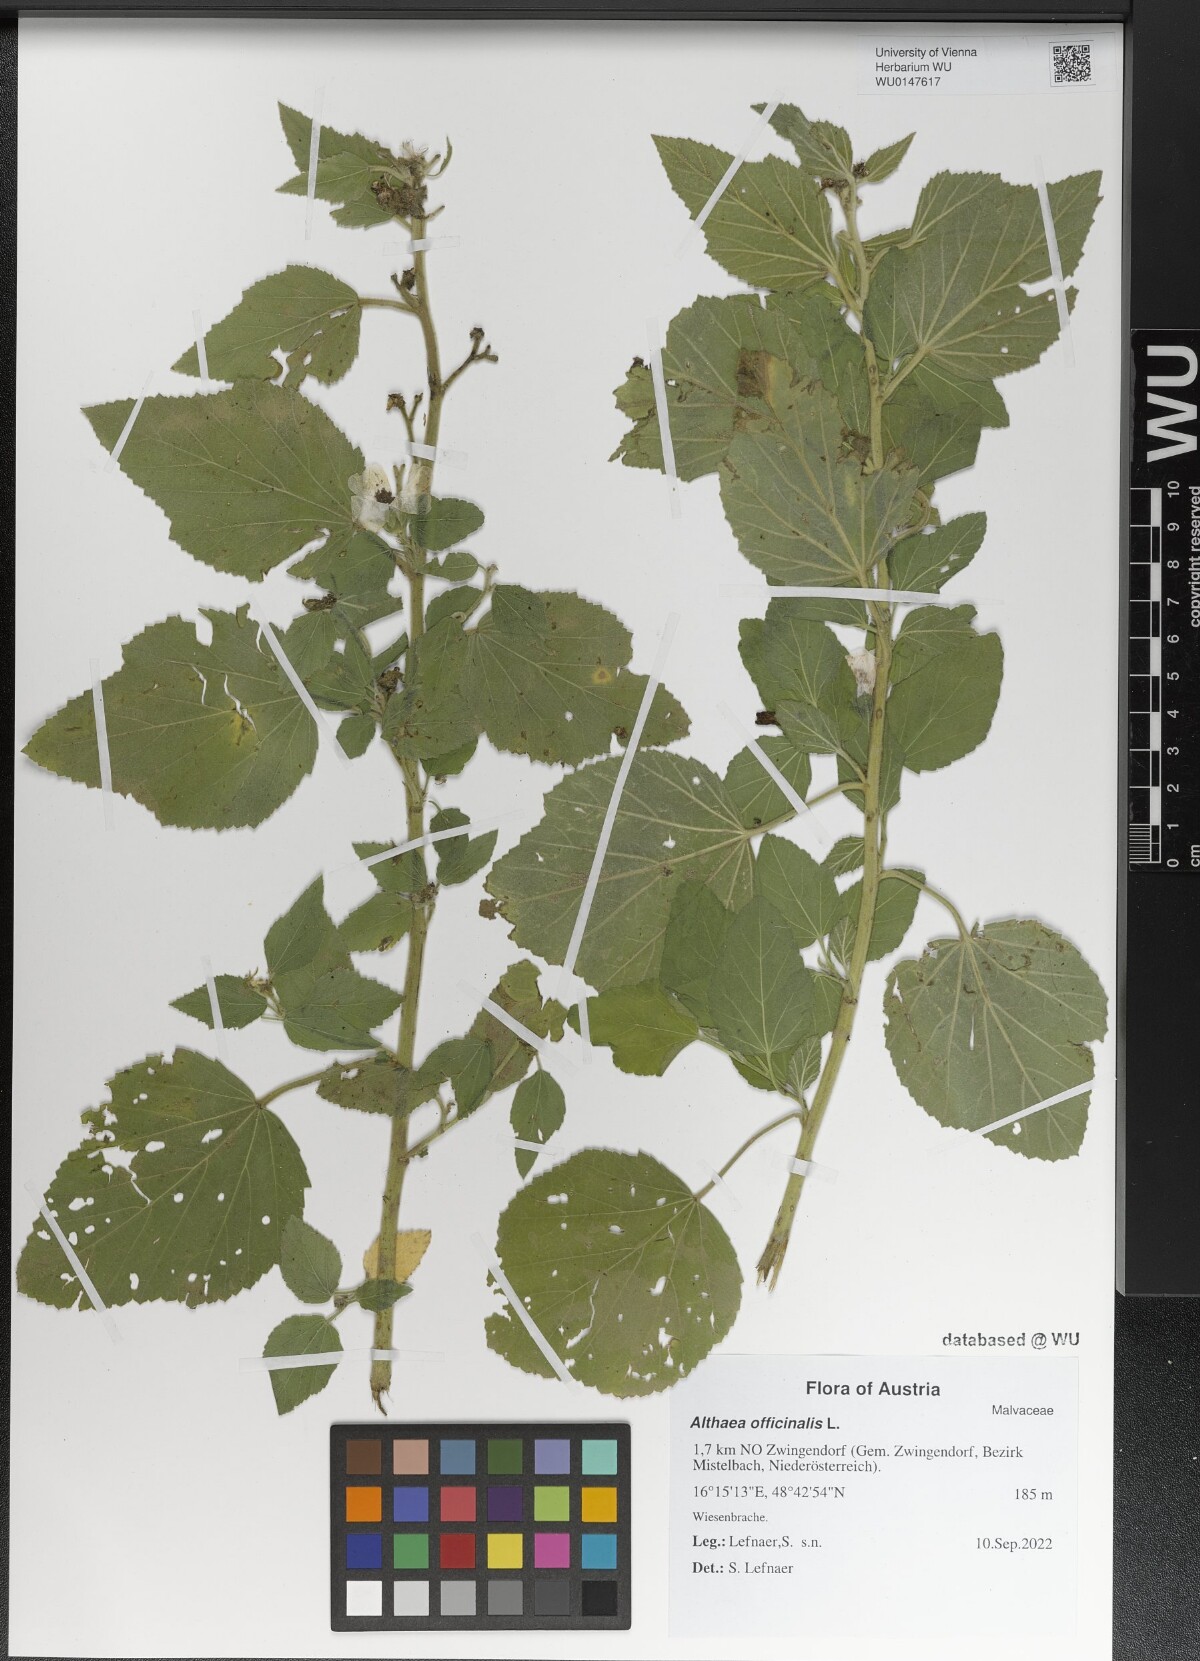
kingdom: Plantae
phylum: Tracheophyta
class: Magnoliopsida
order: Malvales
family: Malvaceae
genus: Althaea
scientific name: Althaea officinalis
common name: Marsh-mallow
